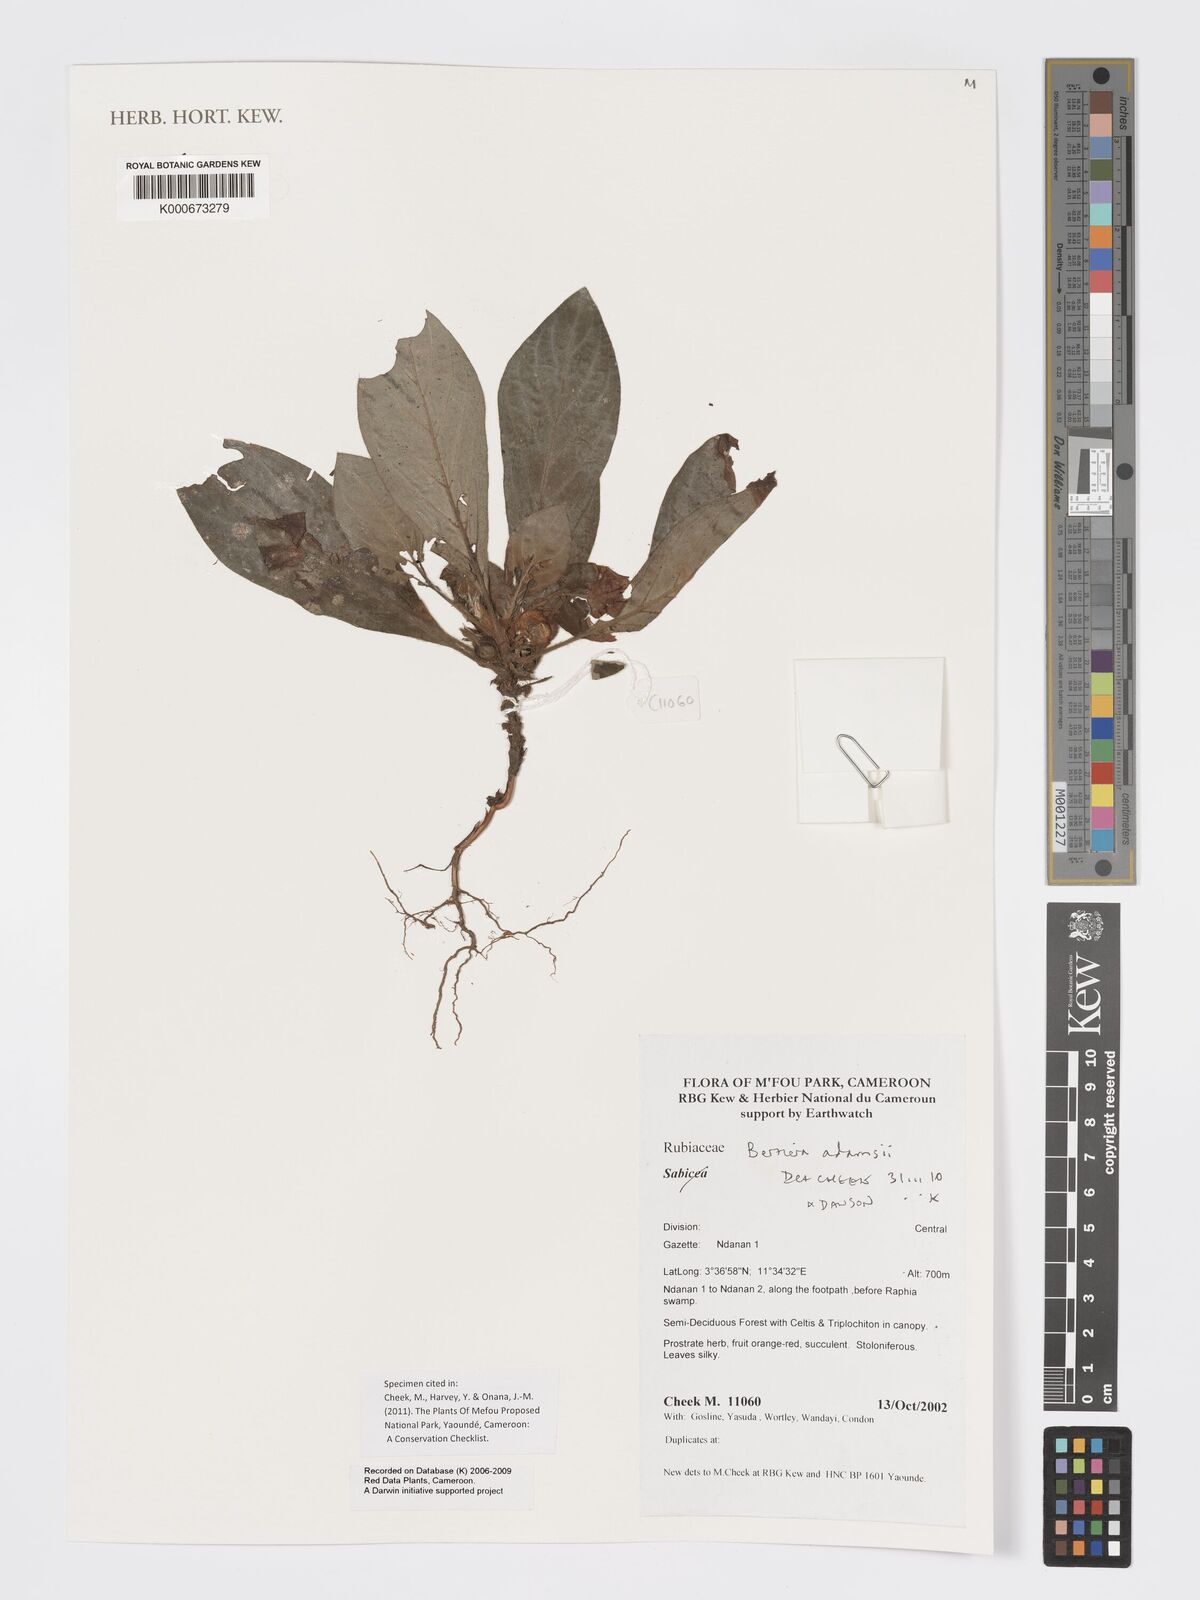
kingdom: Plantae
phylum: Tracheophyta
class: Magnoliopsida
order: Gentianales
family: Rubiaceae
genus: Bertiera
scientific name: Bertiera
